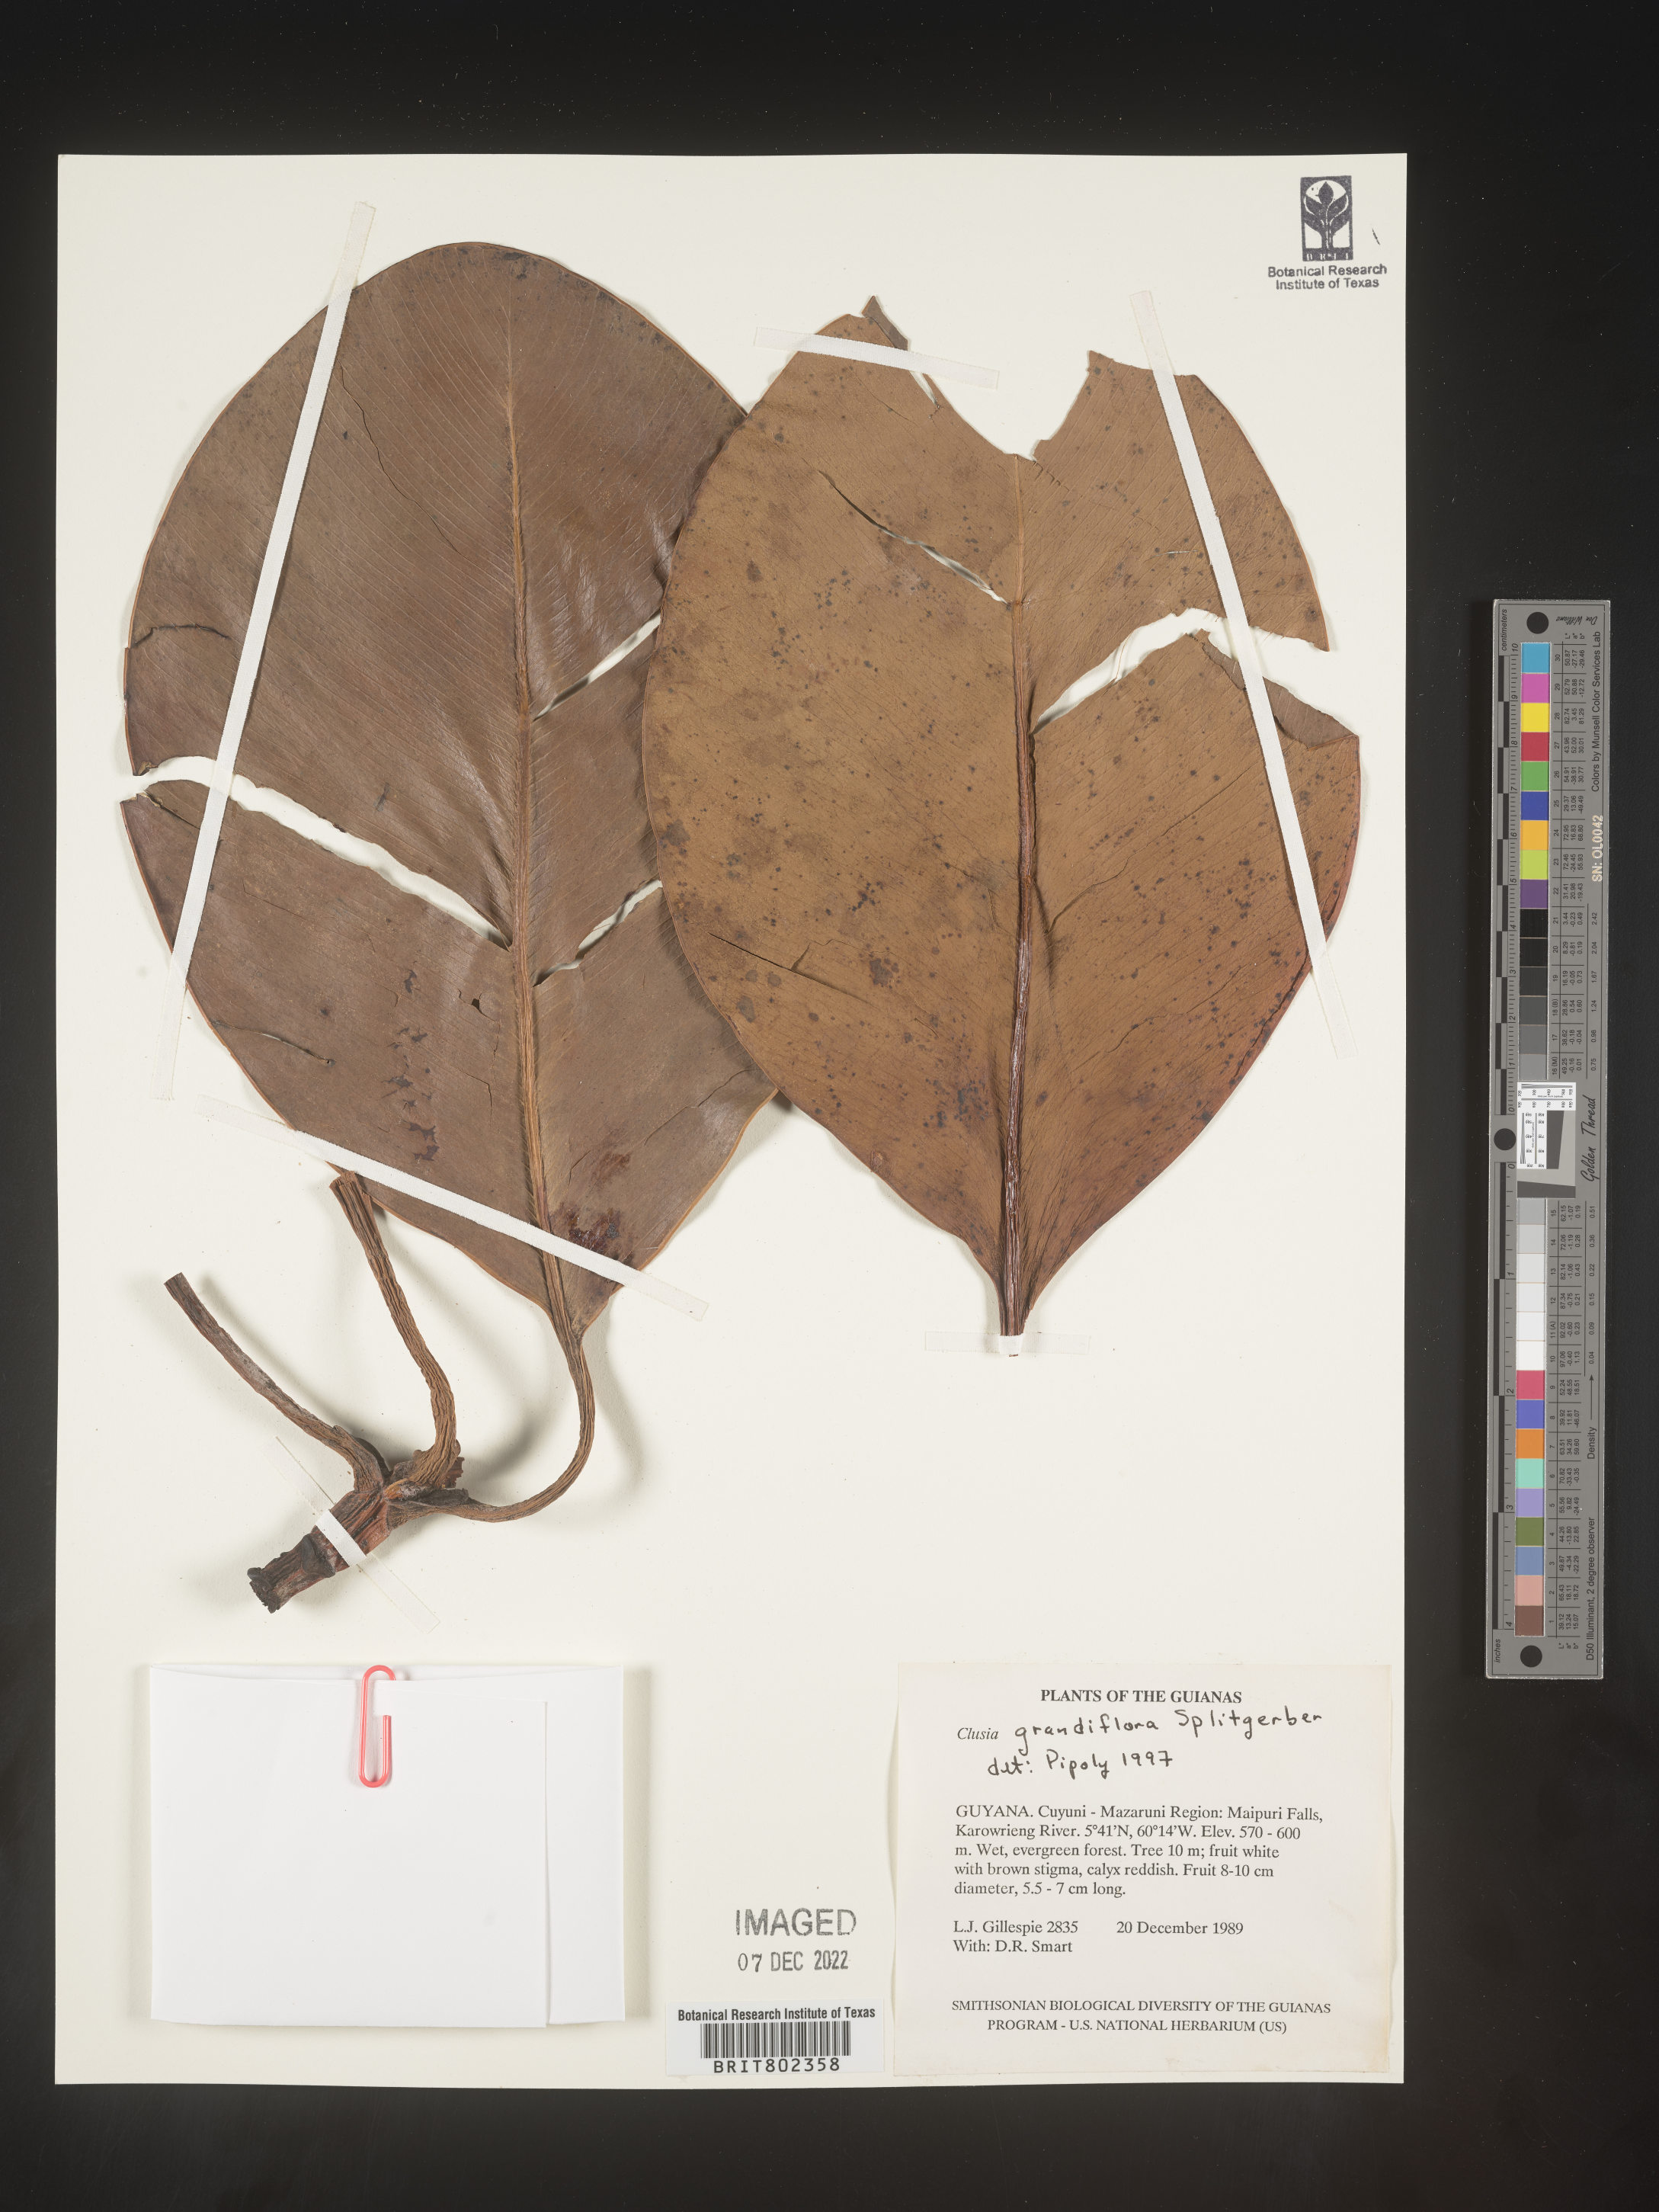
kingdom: Plantae
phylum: Tracheophyta
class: Magnoliopsida
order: Malpighiales
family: Clusiaceae
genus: Clusia
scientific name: Clusia grandiflora
